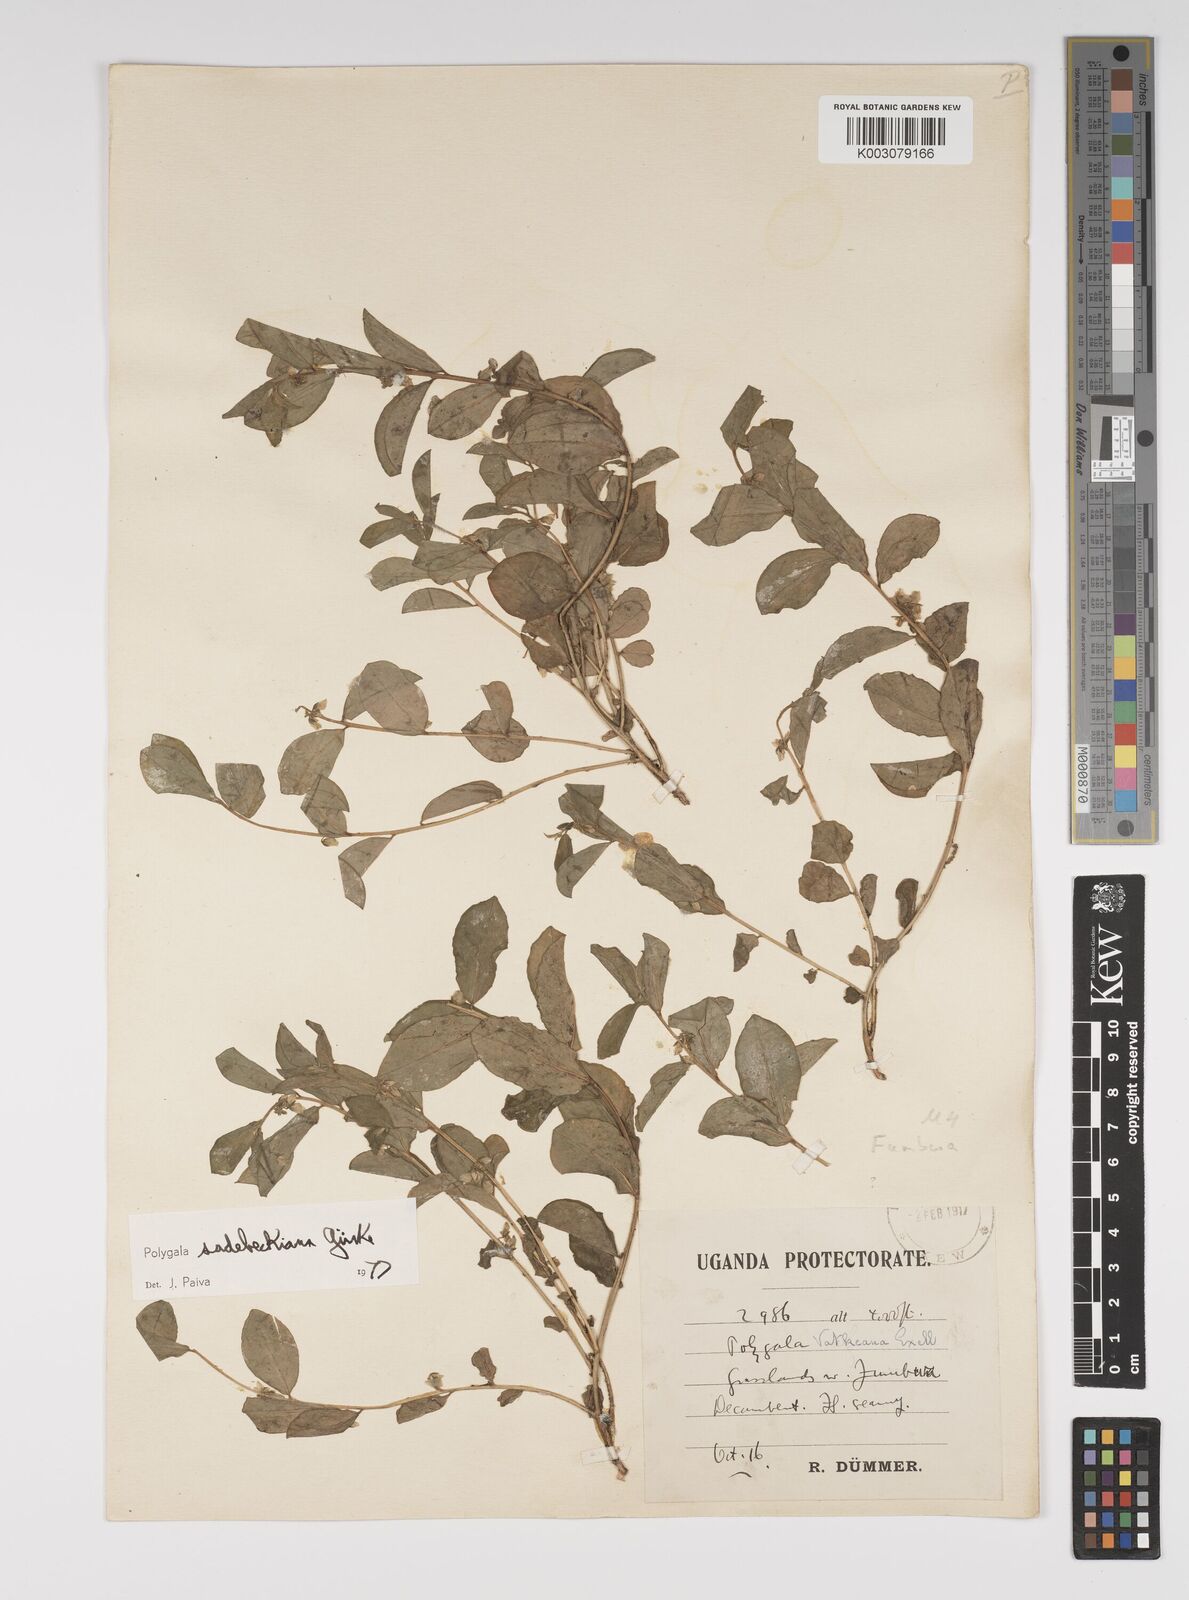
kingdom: Plantae
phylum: Tracheophyta
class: Magnoliopsida
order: Fabales
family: Polygalaceae
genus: Polygala
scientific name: Polygala sadebeckiana
